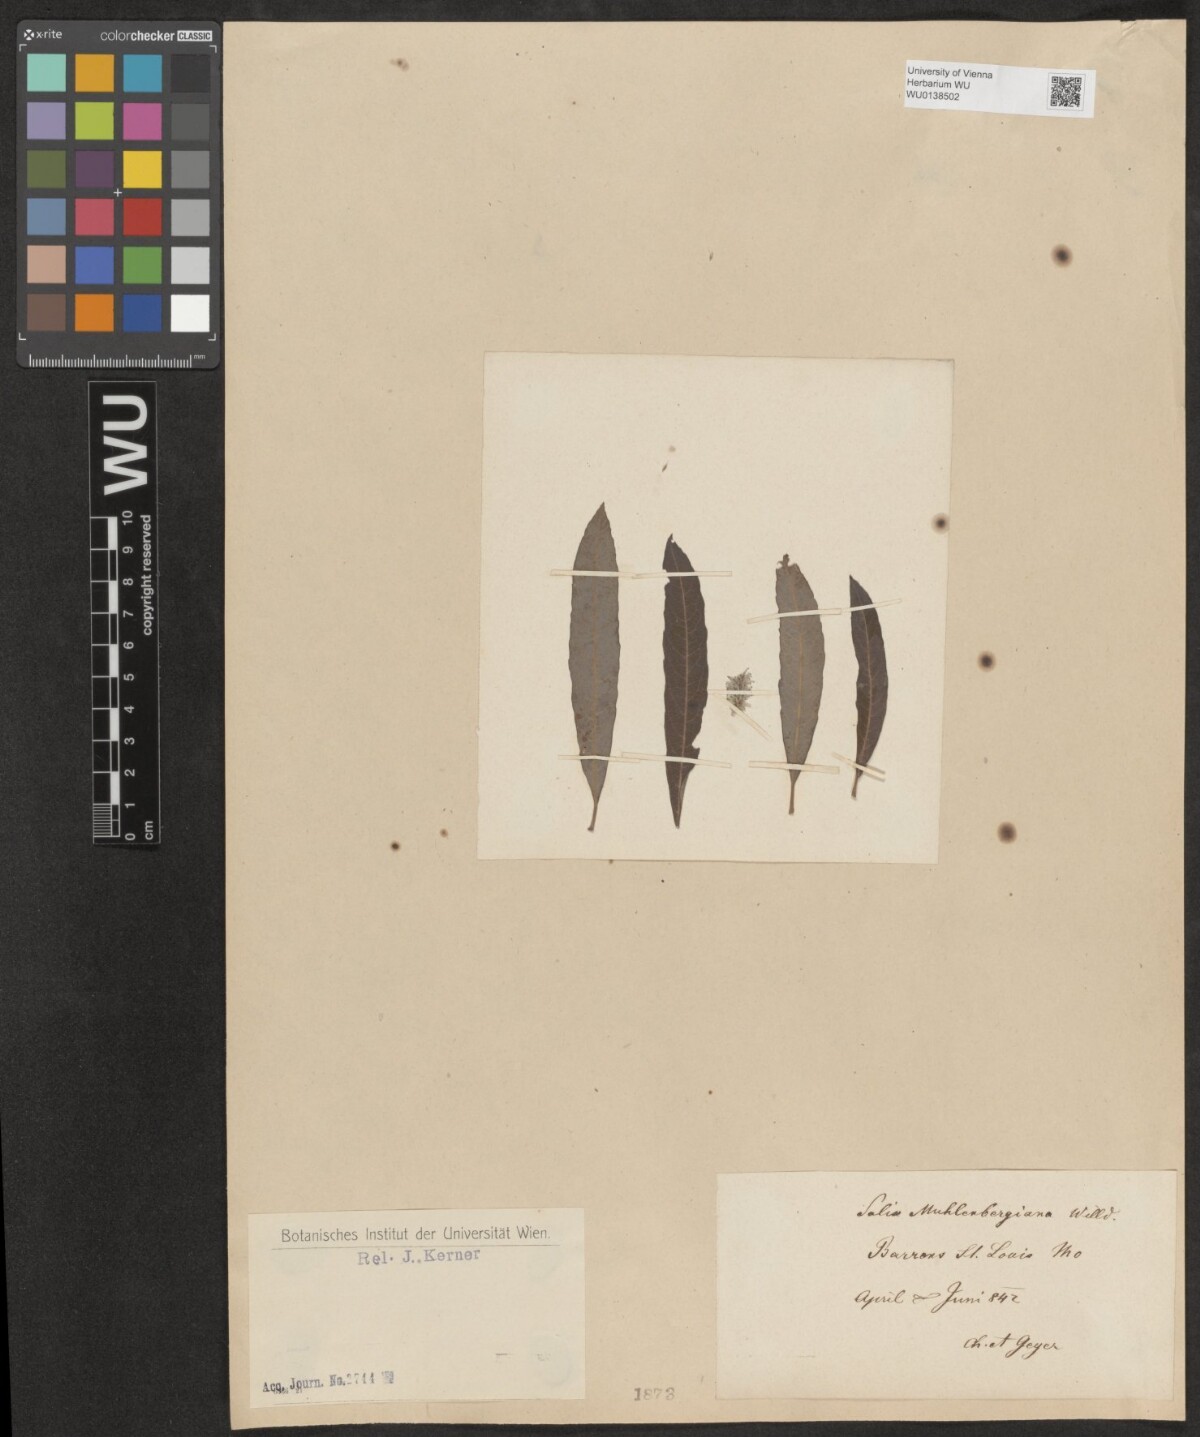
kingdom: Plantae
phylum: Tracheophyta
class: Magnoliopsida
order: Malpighiales
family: Salicaceae
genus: Salix
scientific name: Salix humilis
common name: Prairie willow
